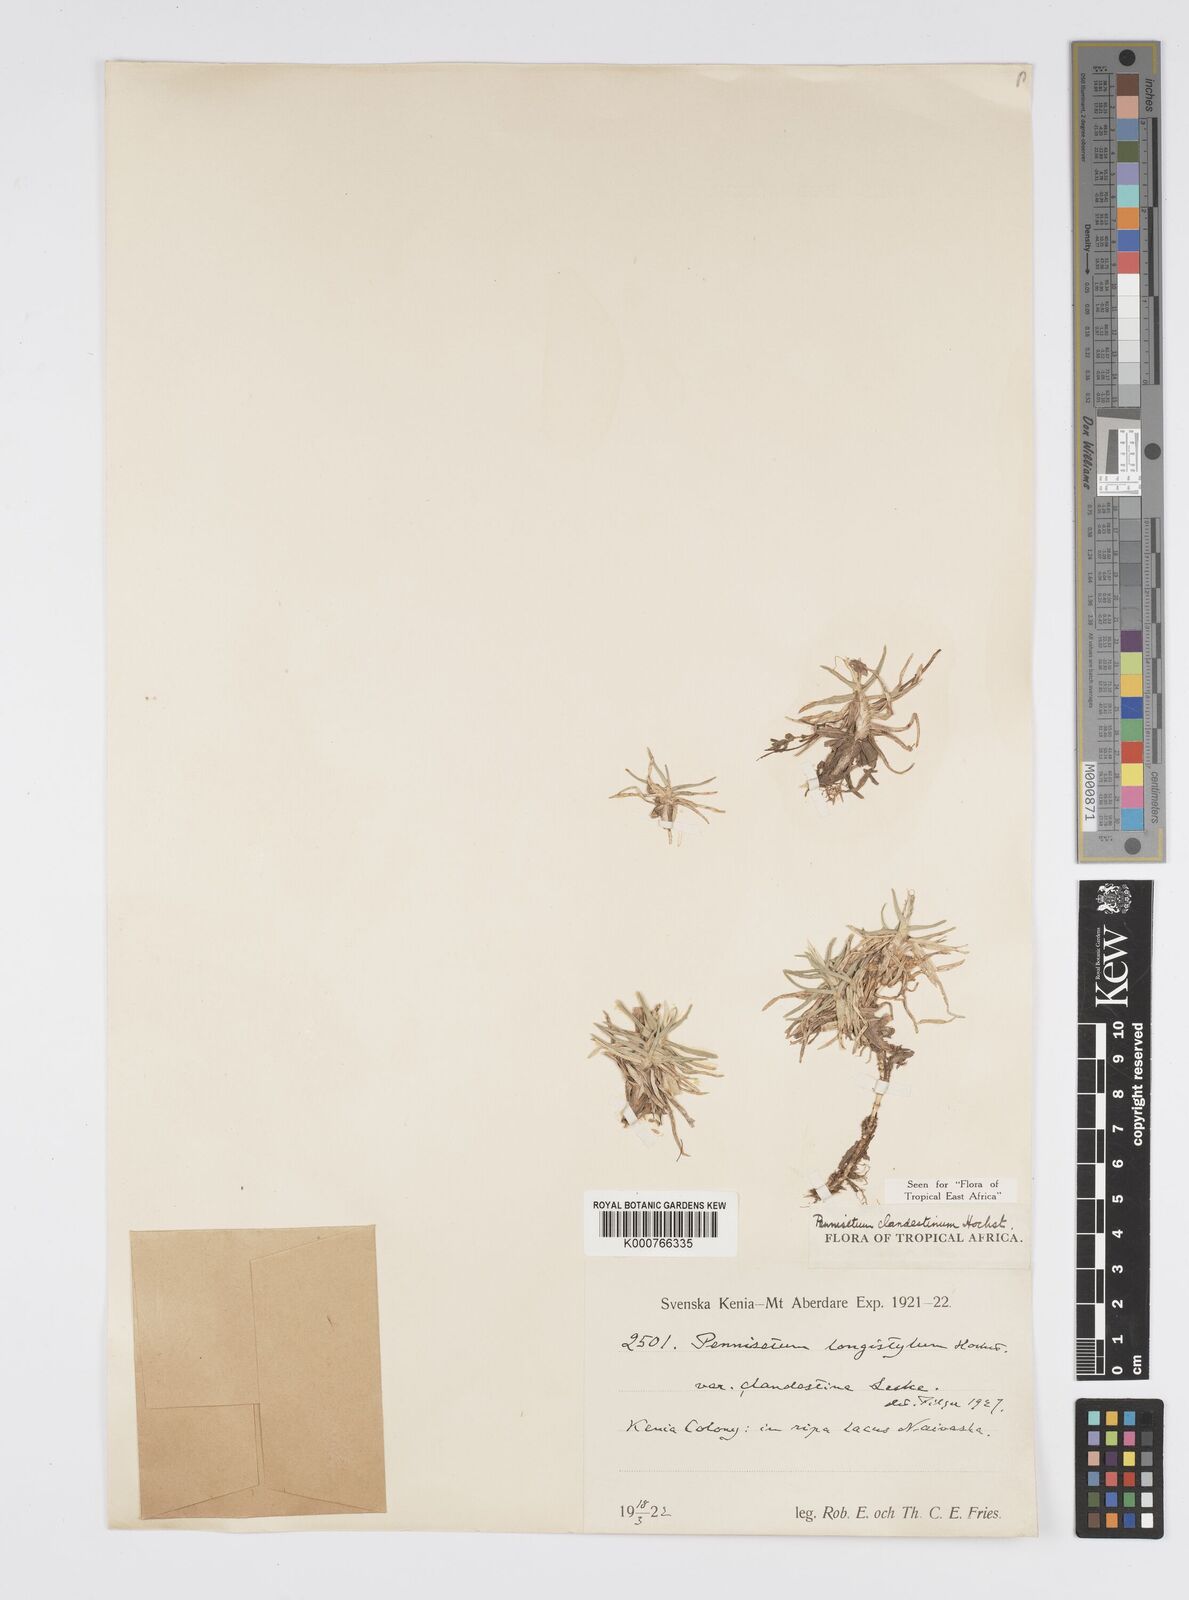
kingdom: Plantae
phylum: Tracheophyta
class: Liliopsida
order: Poales
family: Poaceae
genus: Cenchrus
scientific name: Cenchrus clandestinus
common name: Kikuyugrass
